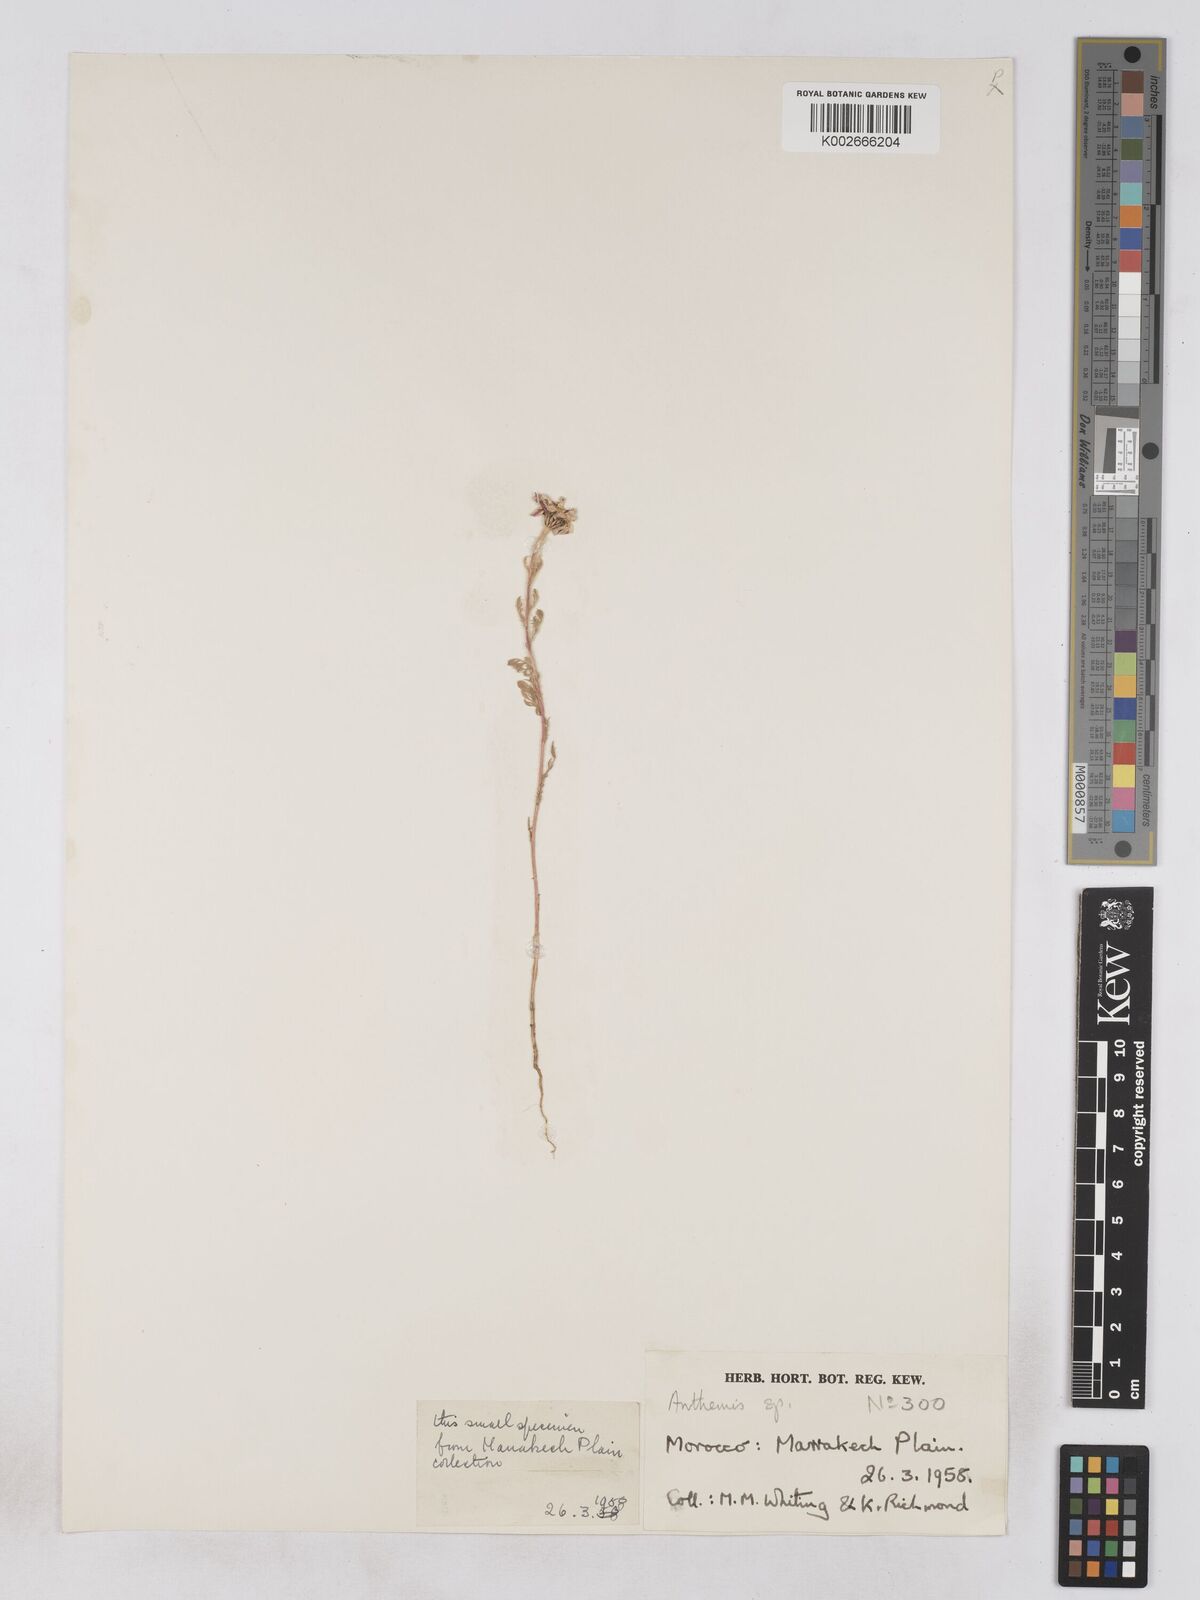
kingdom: Plantae
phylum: Tracheophyta
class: Magnoliopsida
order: Asterales
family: Asteraceae
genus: Rhetinolepis
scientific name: Rhetinolepis
